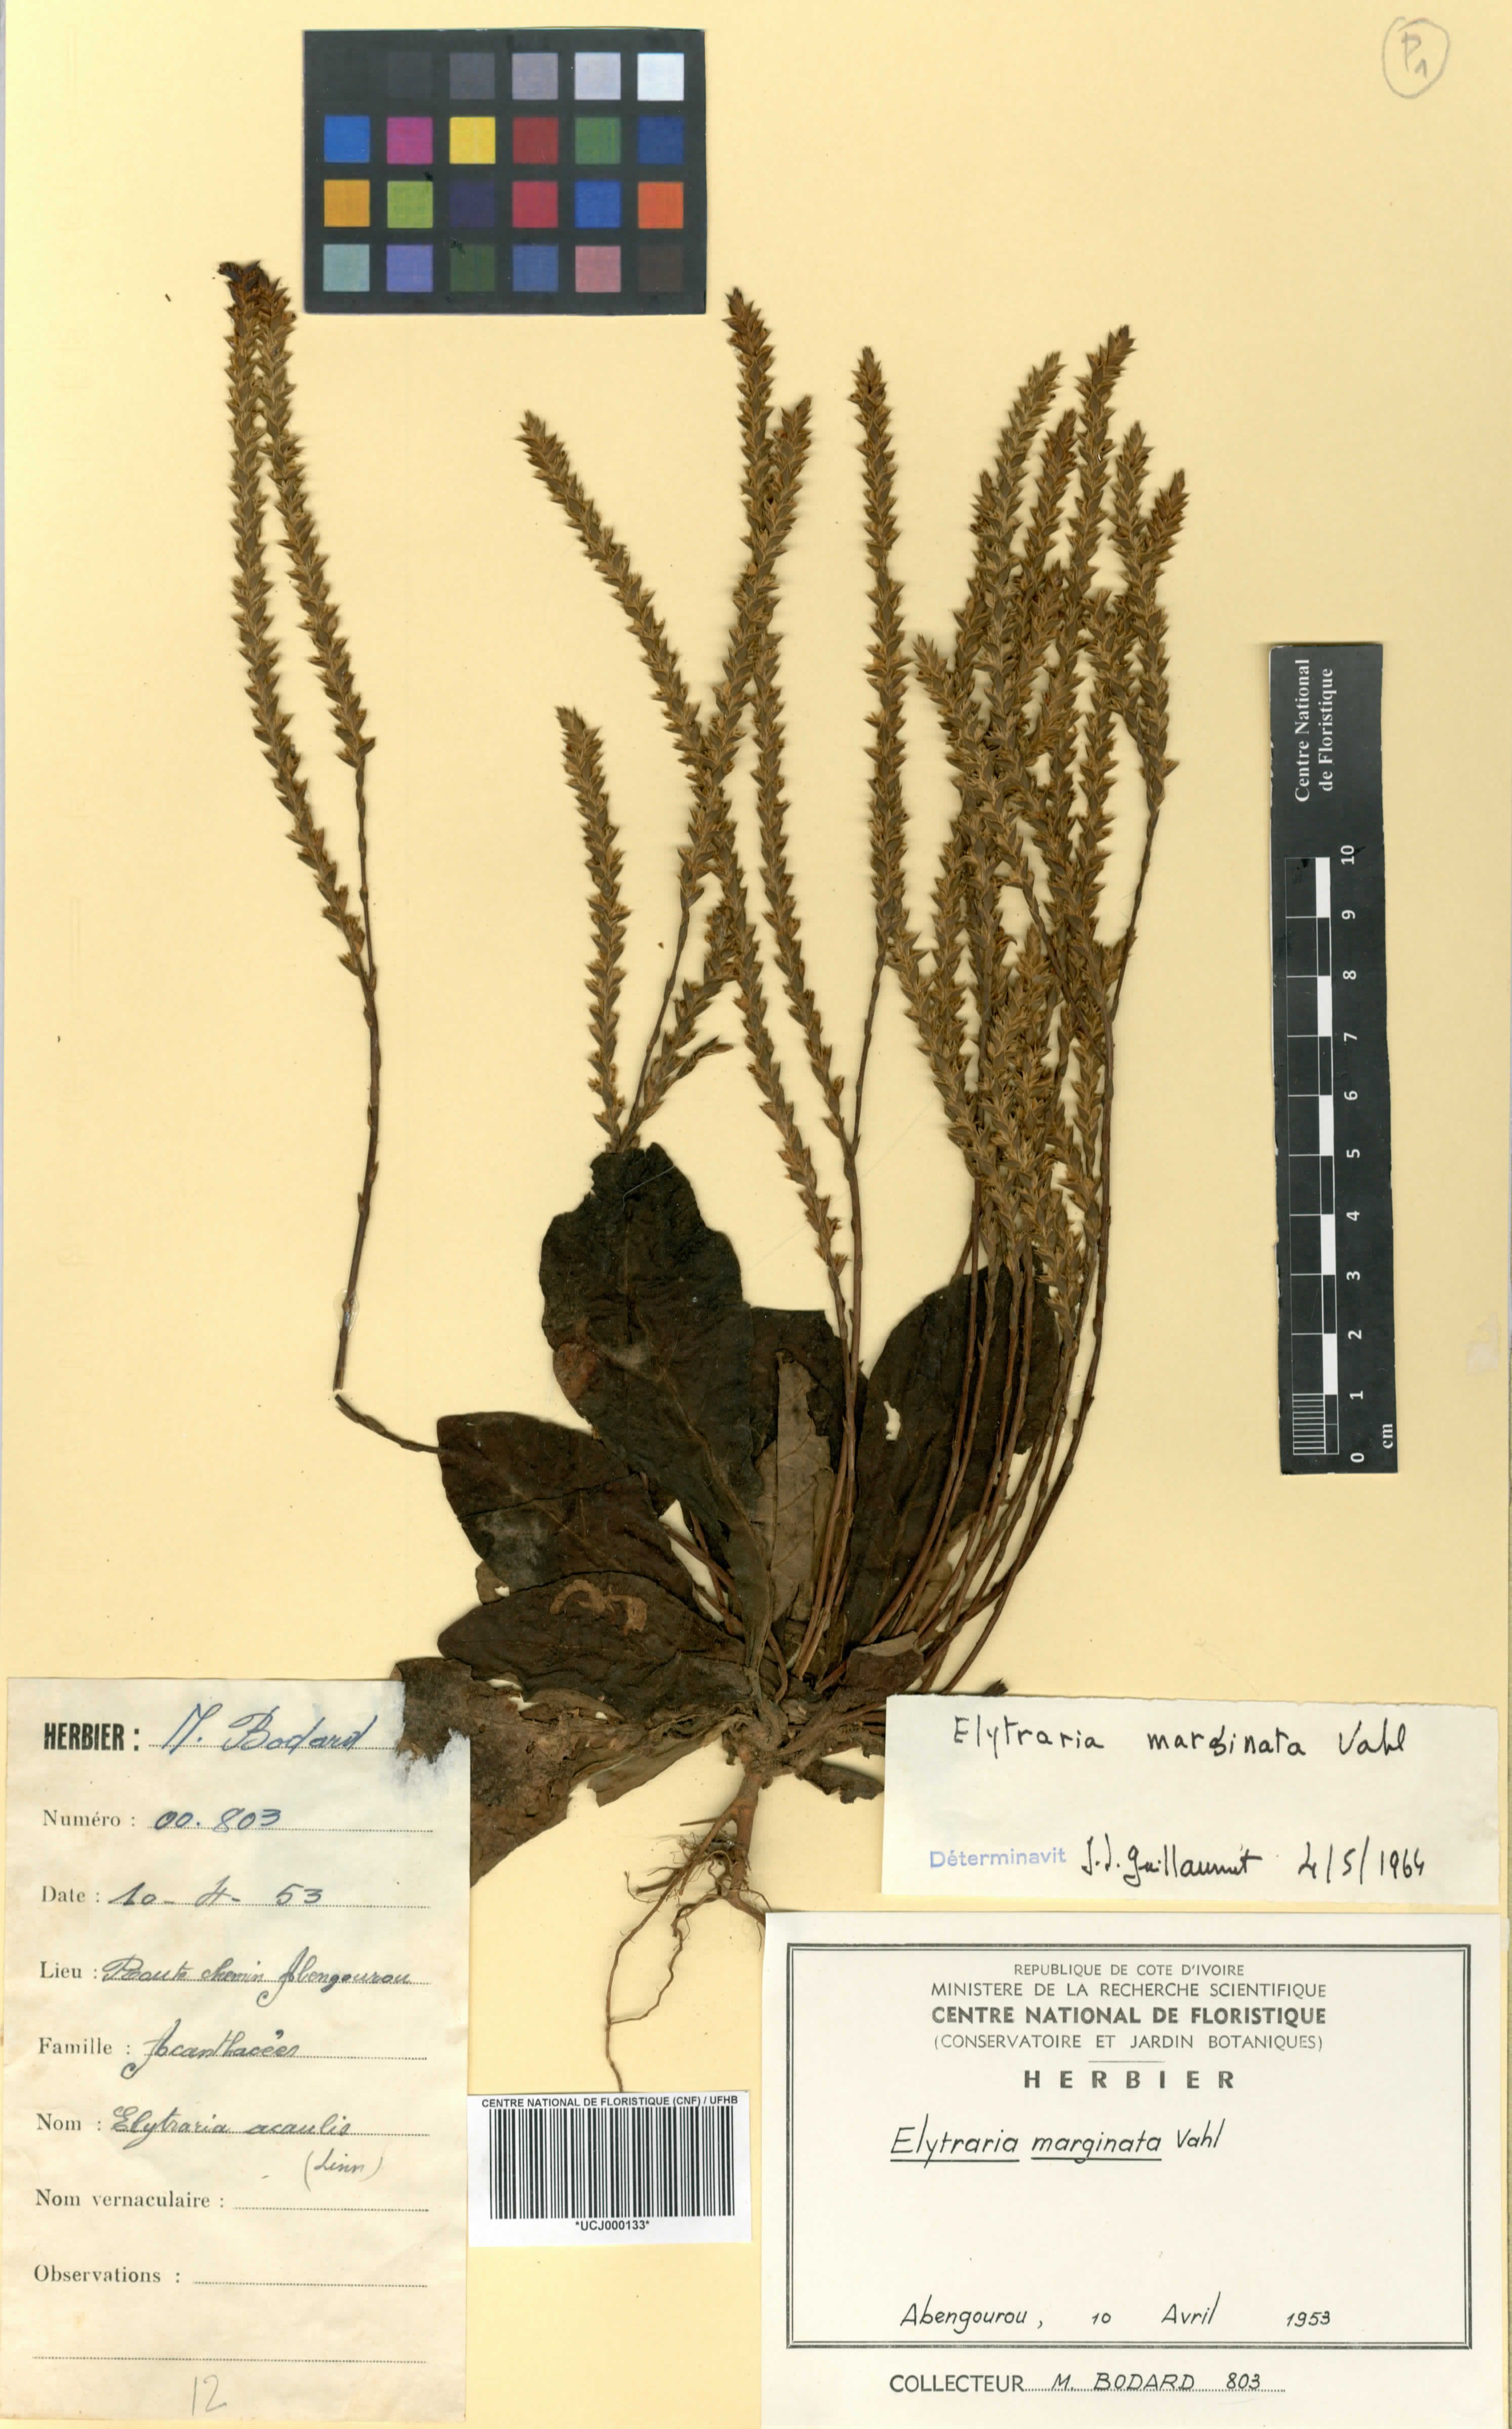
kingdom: Plantae
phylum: Tracheophyta
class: Magnoliopsida
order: Lamiales
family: Acanthaceae
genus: Elytraria
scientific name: Elytraria marginata
